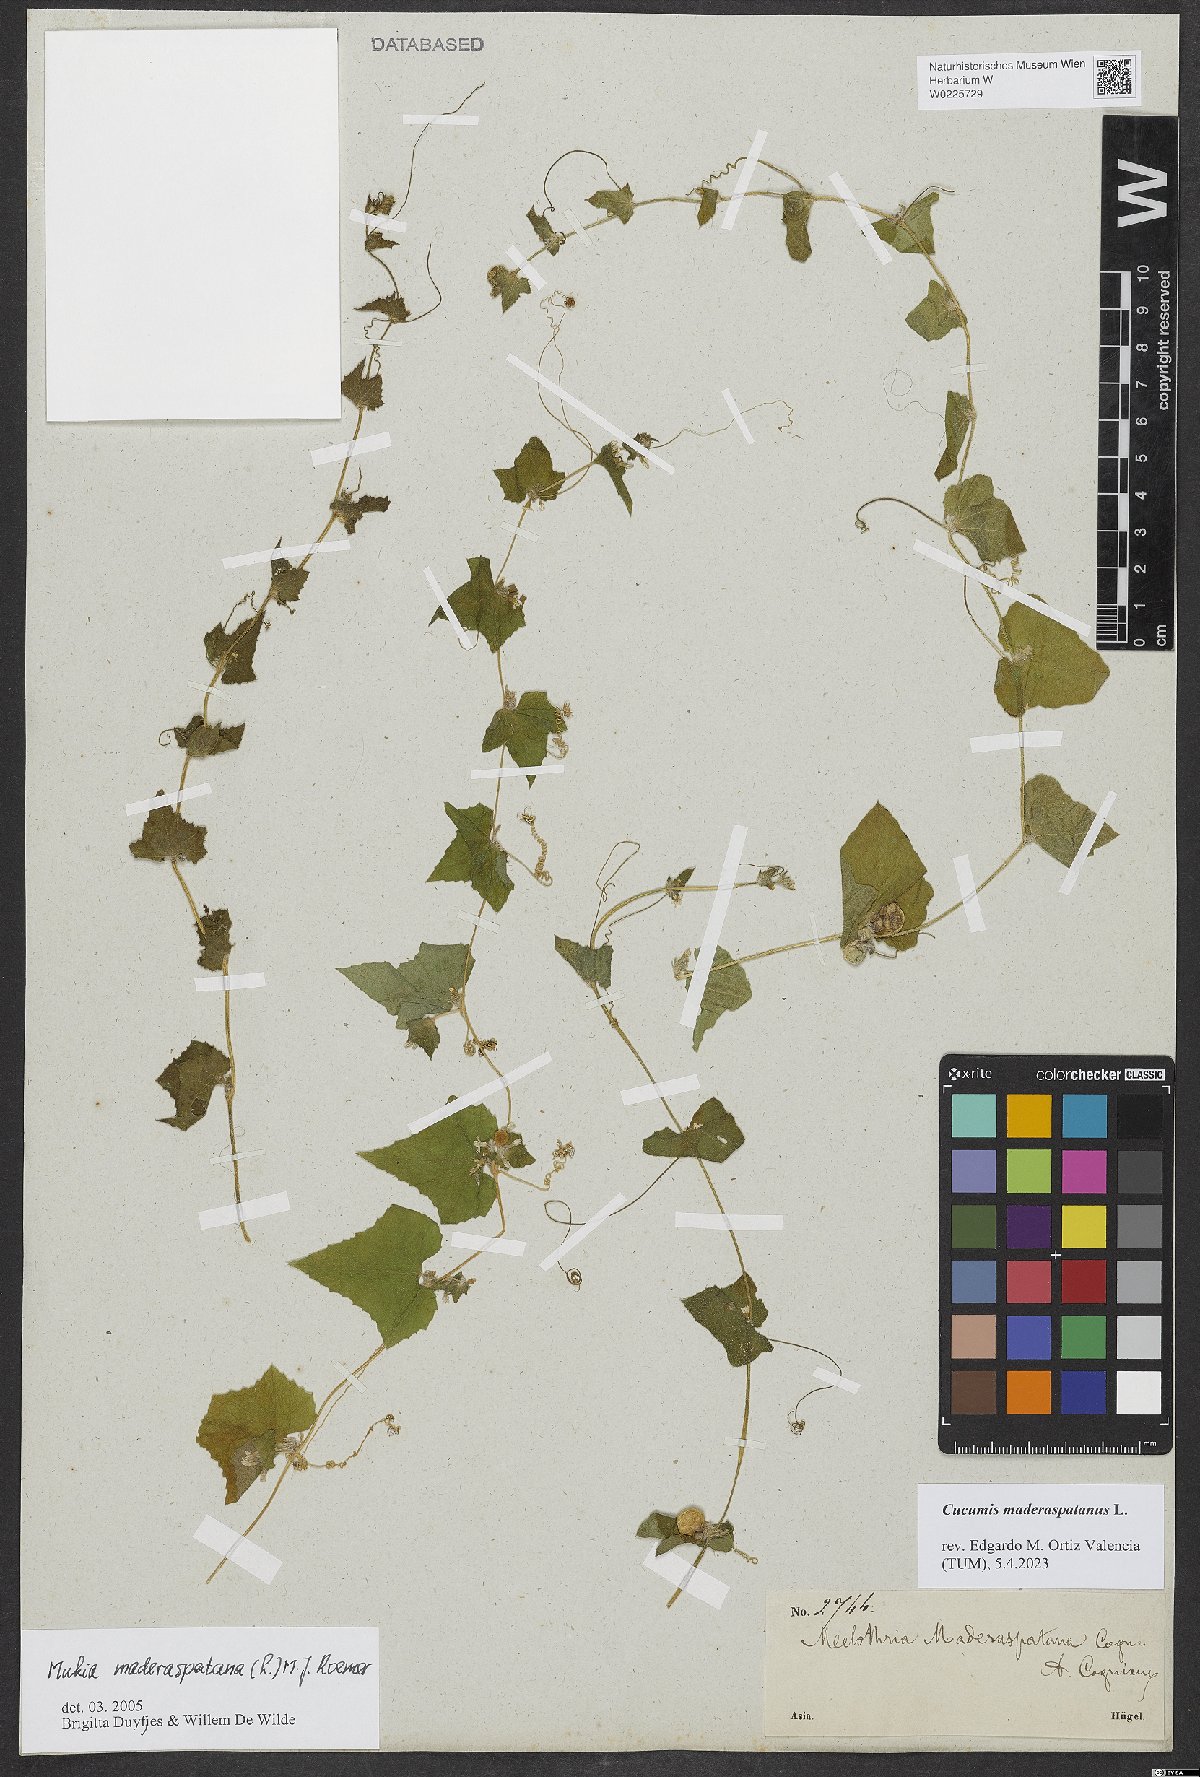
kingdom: Plantae
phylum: Tracheophyta
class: Magnoliopsida
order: Cucurbitales
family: Cucurbitaceae
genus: Cucumis
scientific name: Cucumis maderaspatanus
